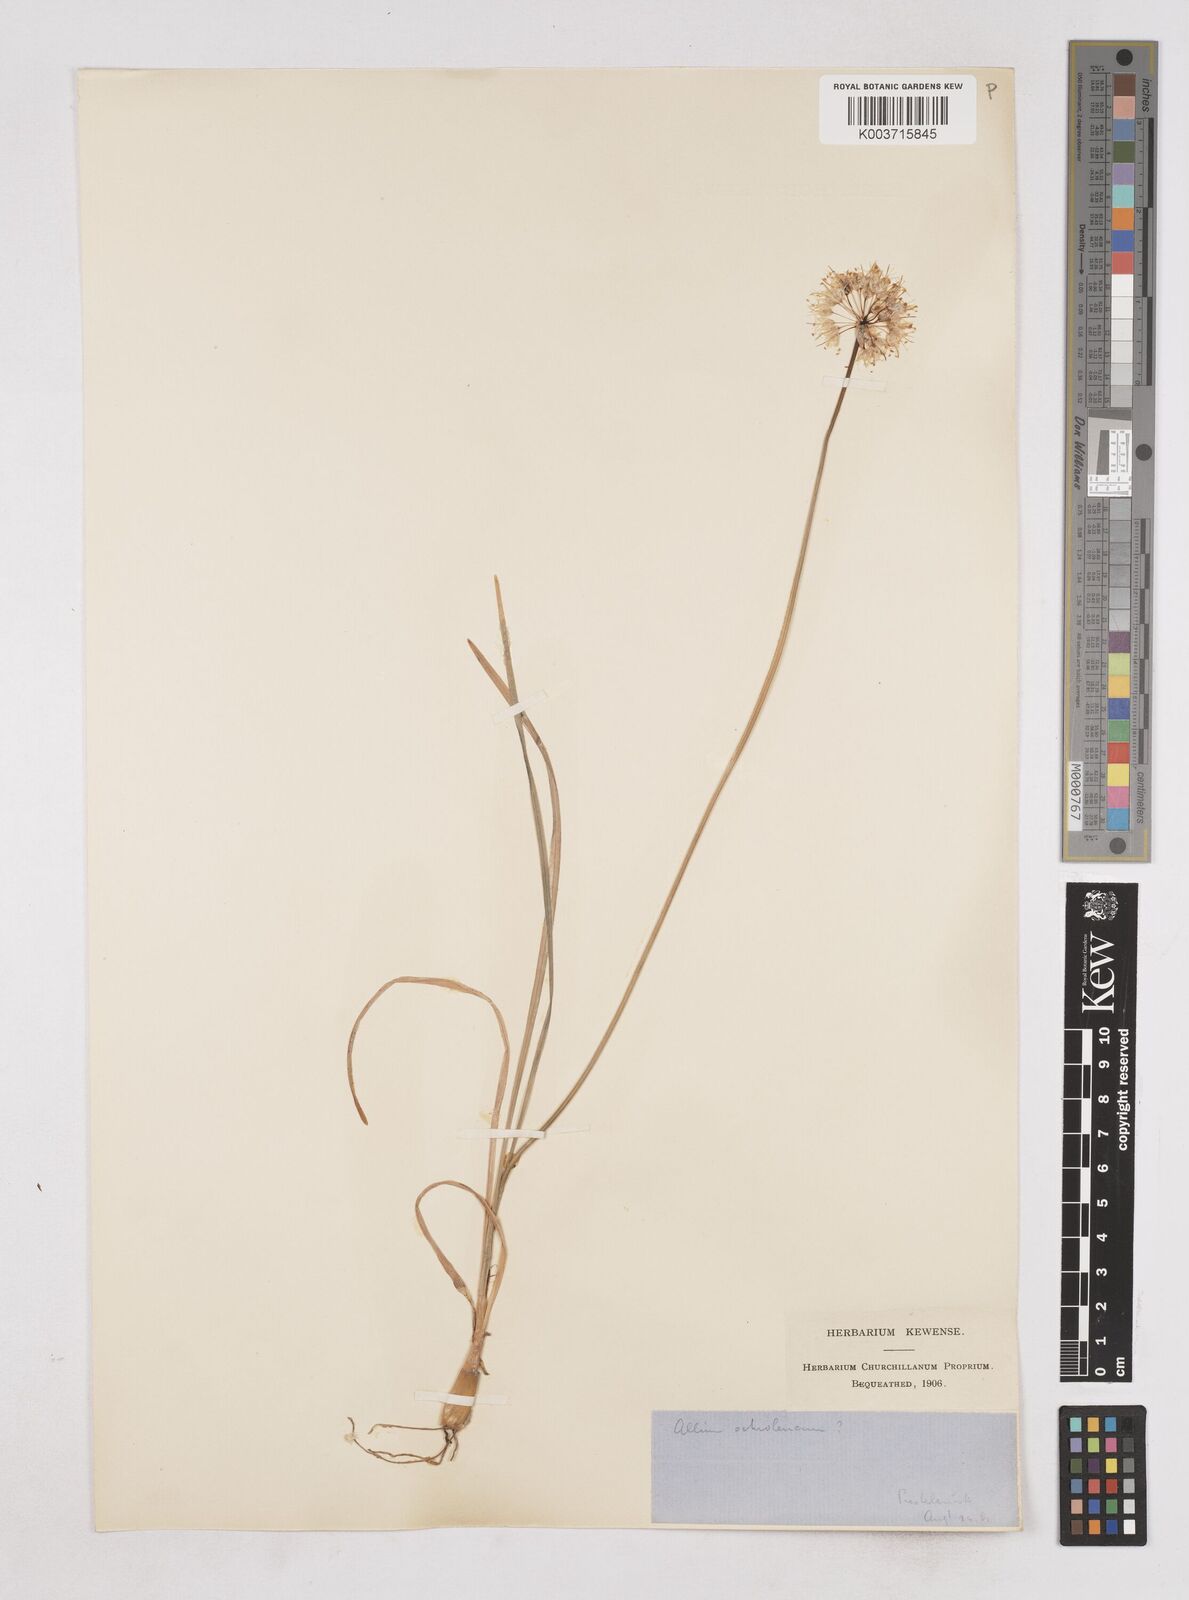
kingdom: Plantae
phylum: Tracheophyta
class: Liliopsida
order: Asparagales
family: Amaryllidaceae
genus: Allium
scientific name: Allium ericetorum
